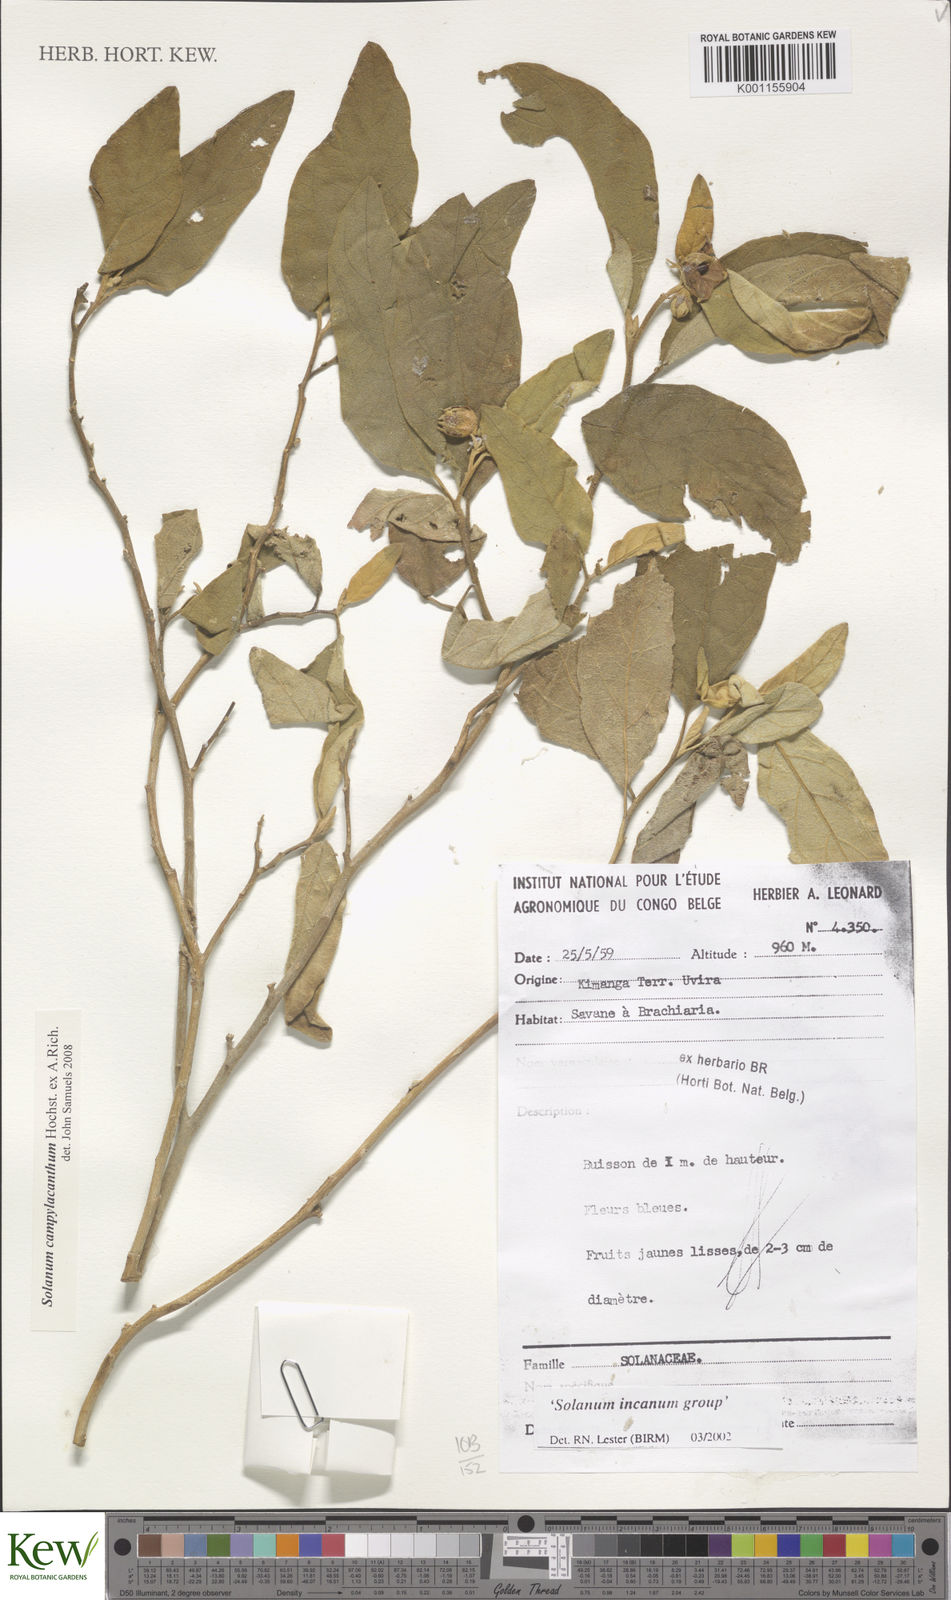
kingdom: Plantae
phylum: Tracheophyta
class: Magnoliopsida
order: Solanales
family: Solanaceae
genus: Solanum
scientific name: Solanum campylacanthum
